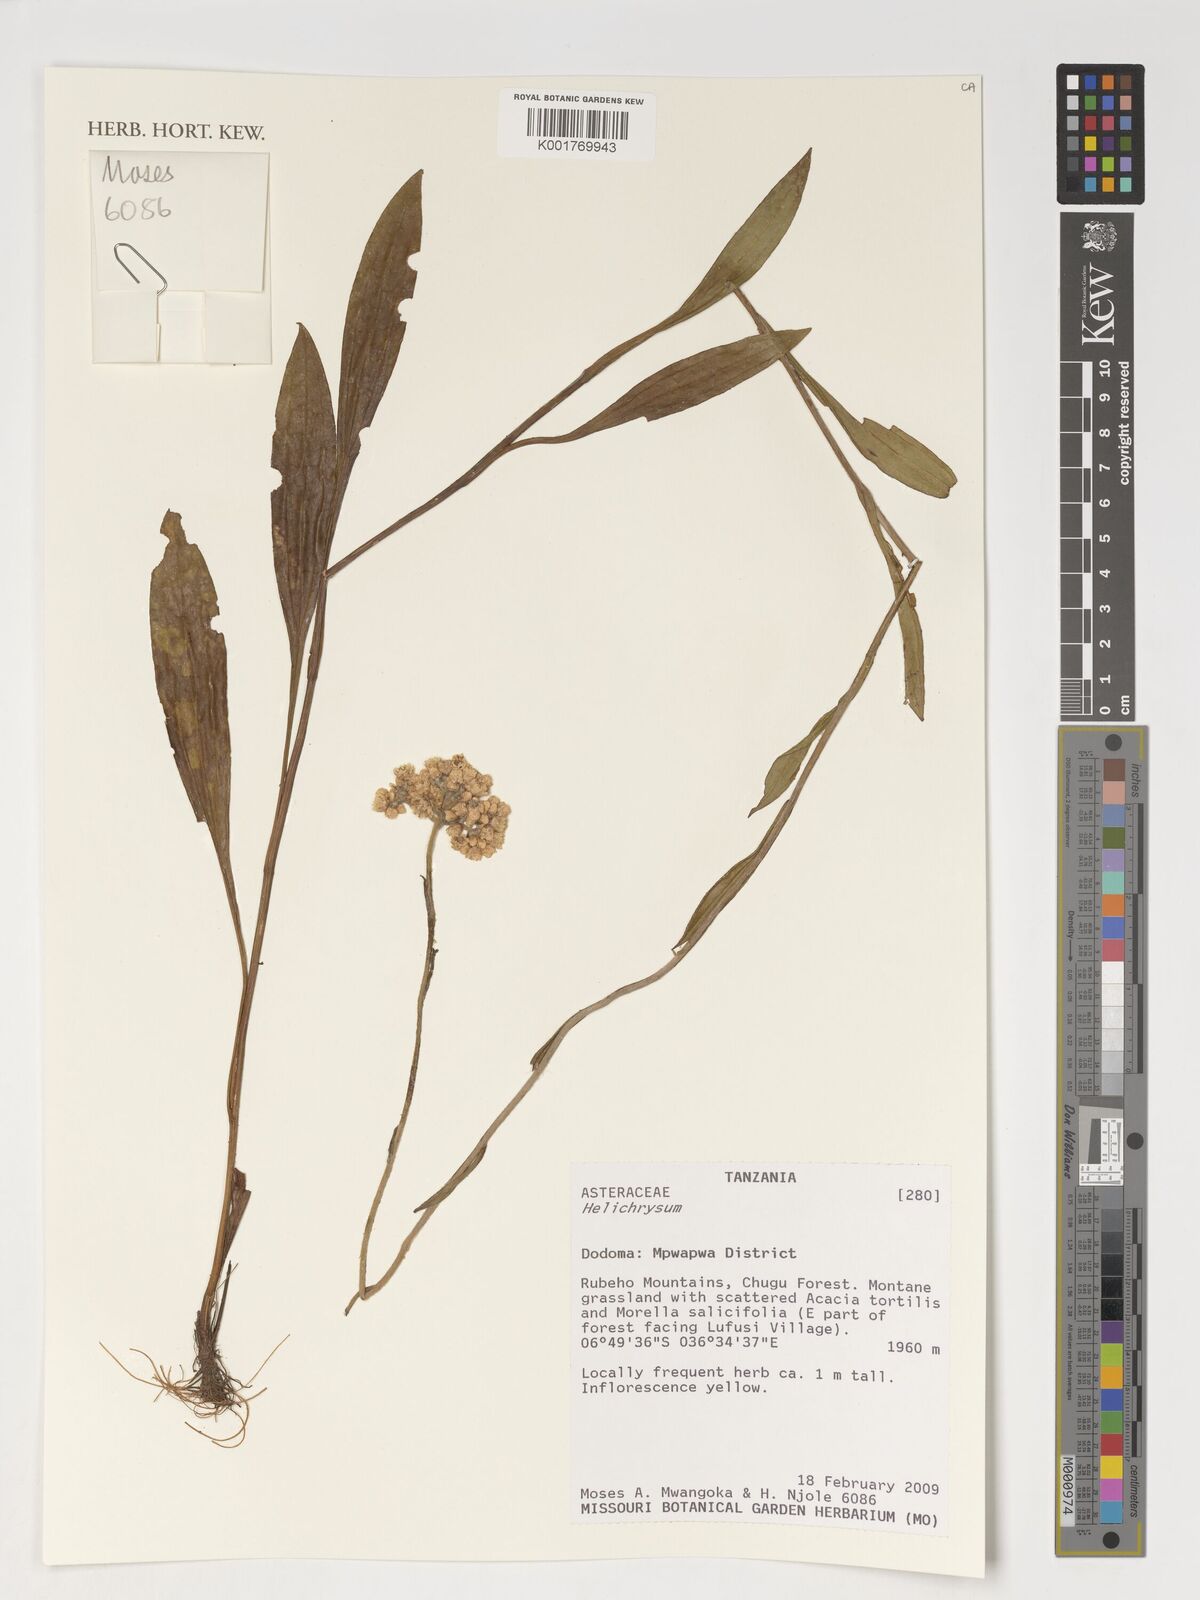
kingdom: Plantae
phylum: Tracheophyta
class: Magnoliopsida
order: Asterales
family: Asteraceae
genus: Helichrysum
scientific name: Helichrysum
